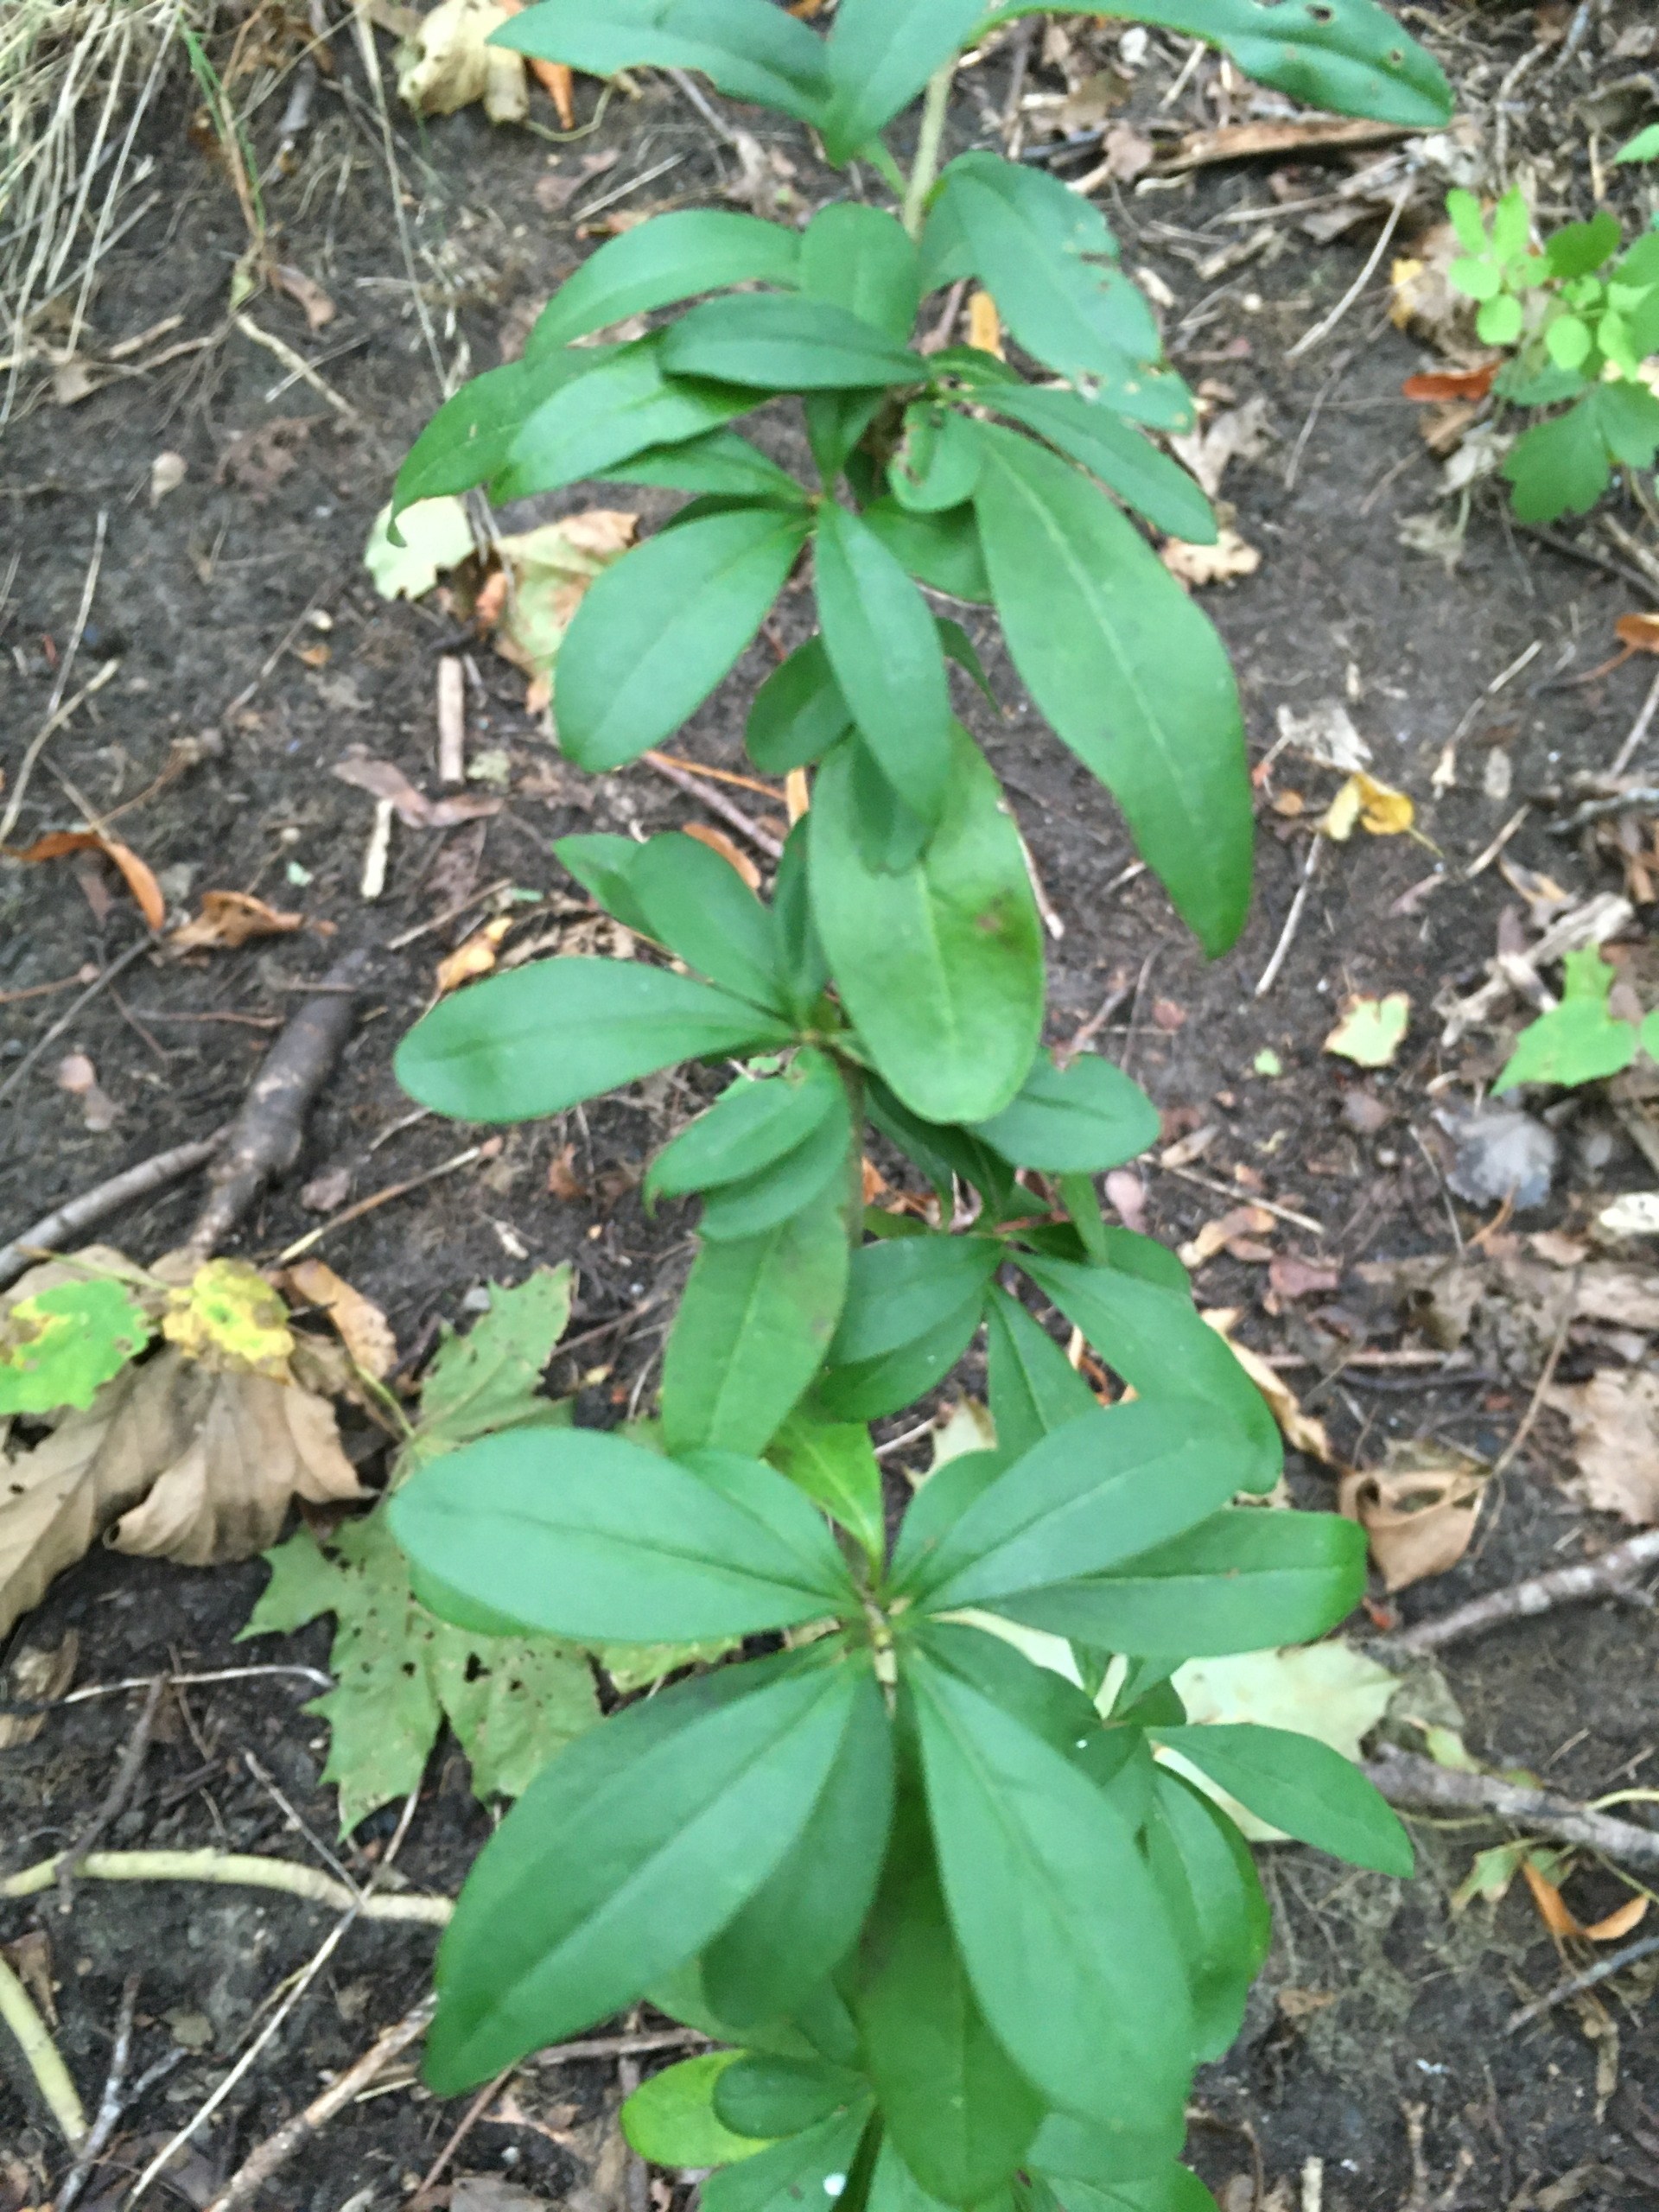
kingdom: Plantae
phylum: Tracheophyta
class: Magnoliopsida
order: Lamiales
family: Oleaceae
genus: Ligustrum
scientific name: Ligustrum vulgare
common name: Liguster
